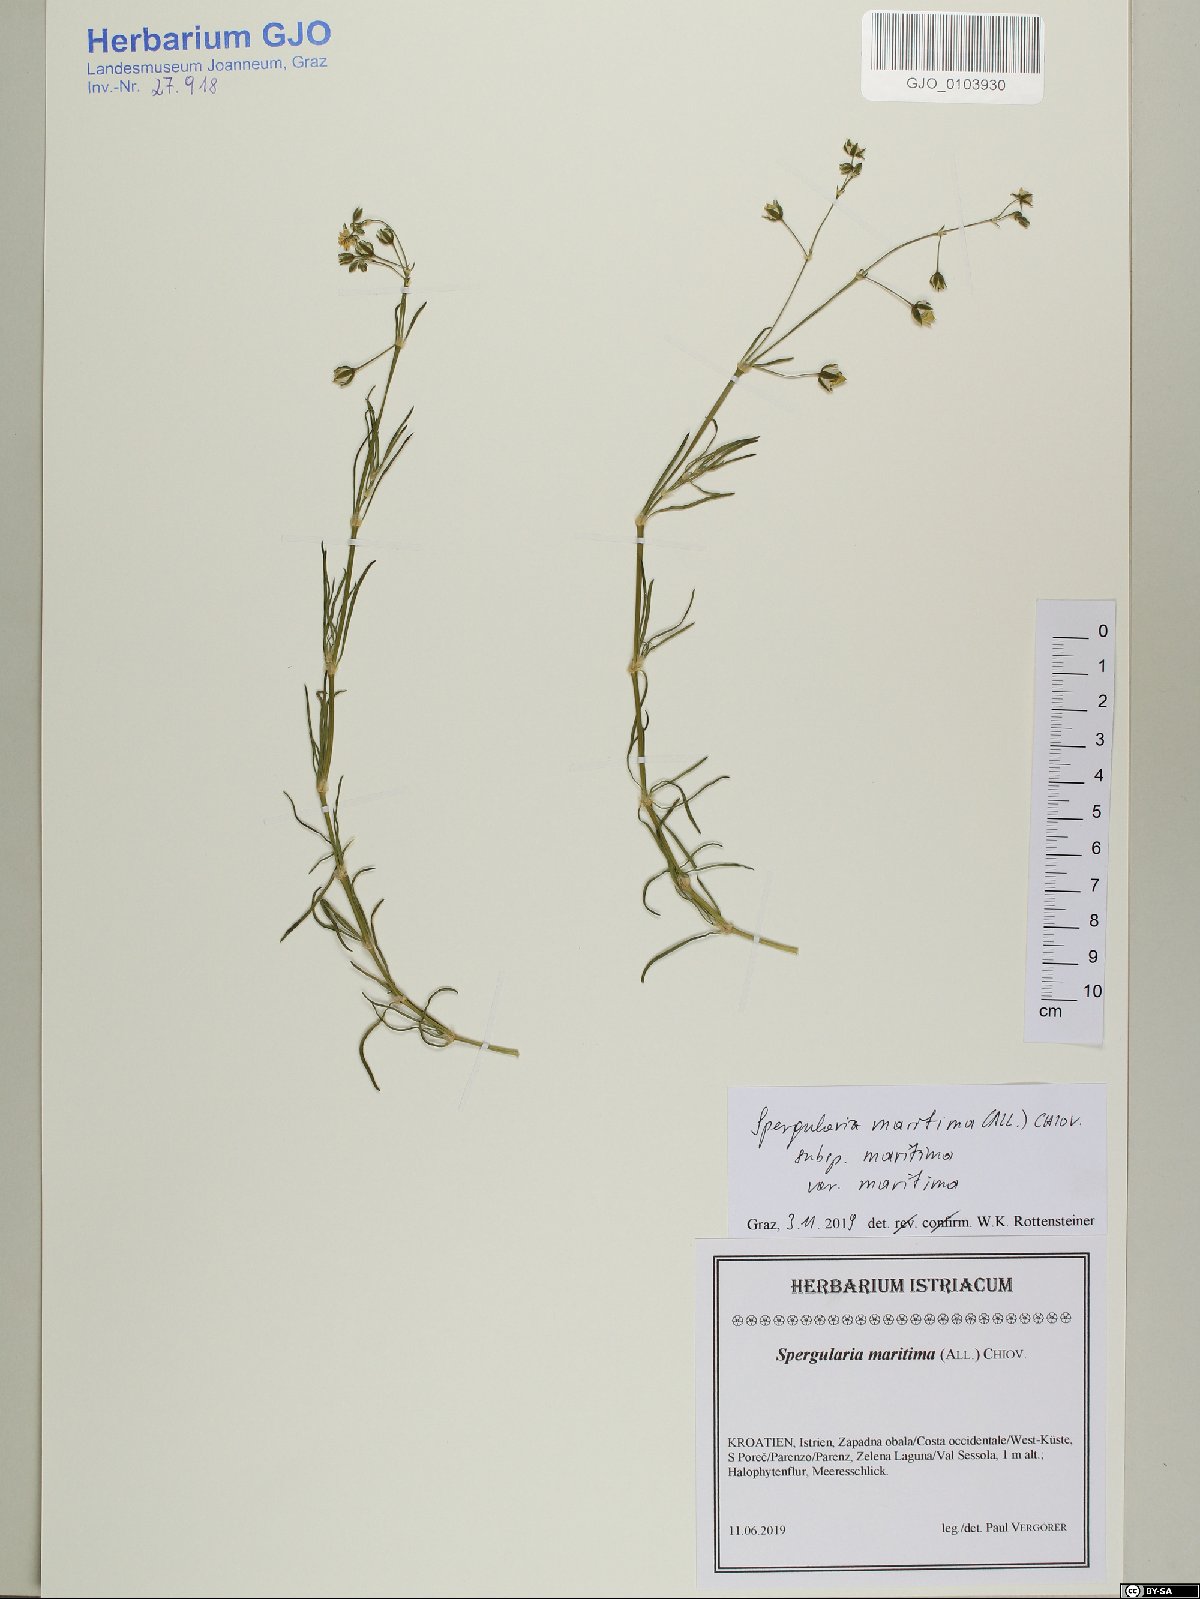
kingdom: Plantae
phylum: Tracheophyta
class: Magnoliopsida
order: Caryophyllales
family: Caryophyllaceae
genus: Spergularia
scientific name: Spergularia
